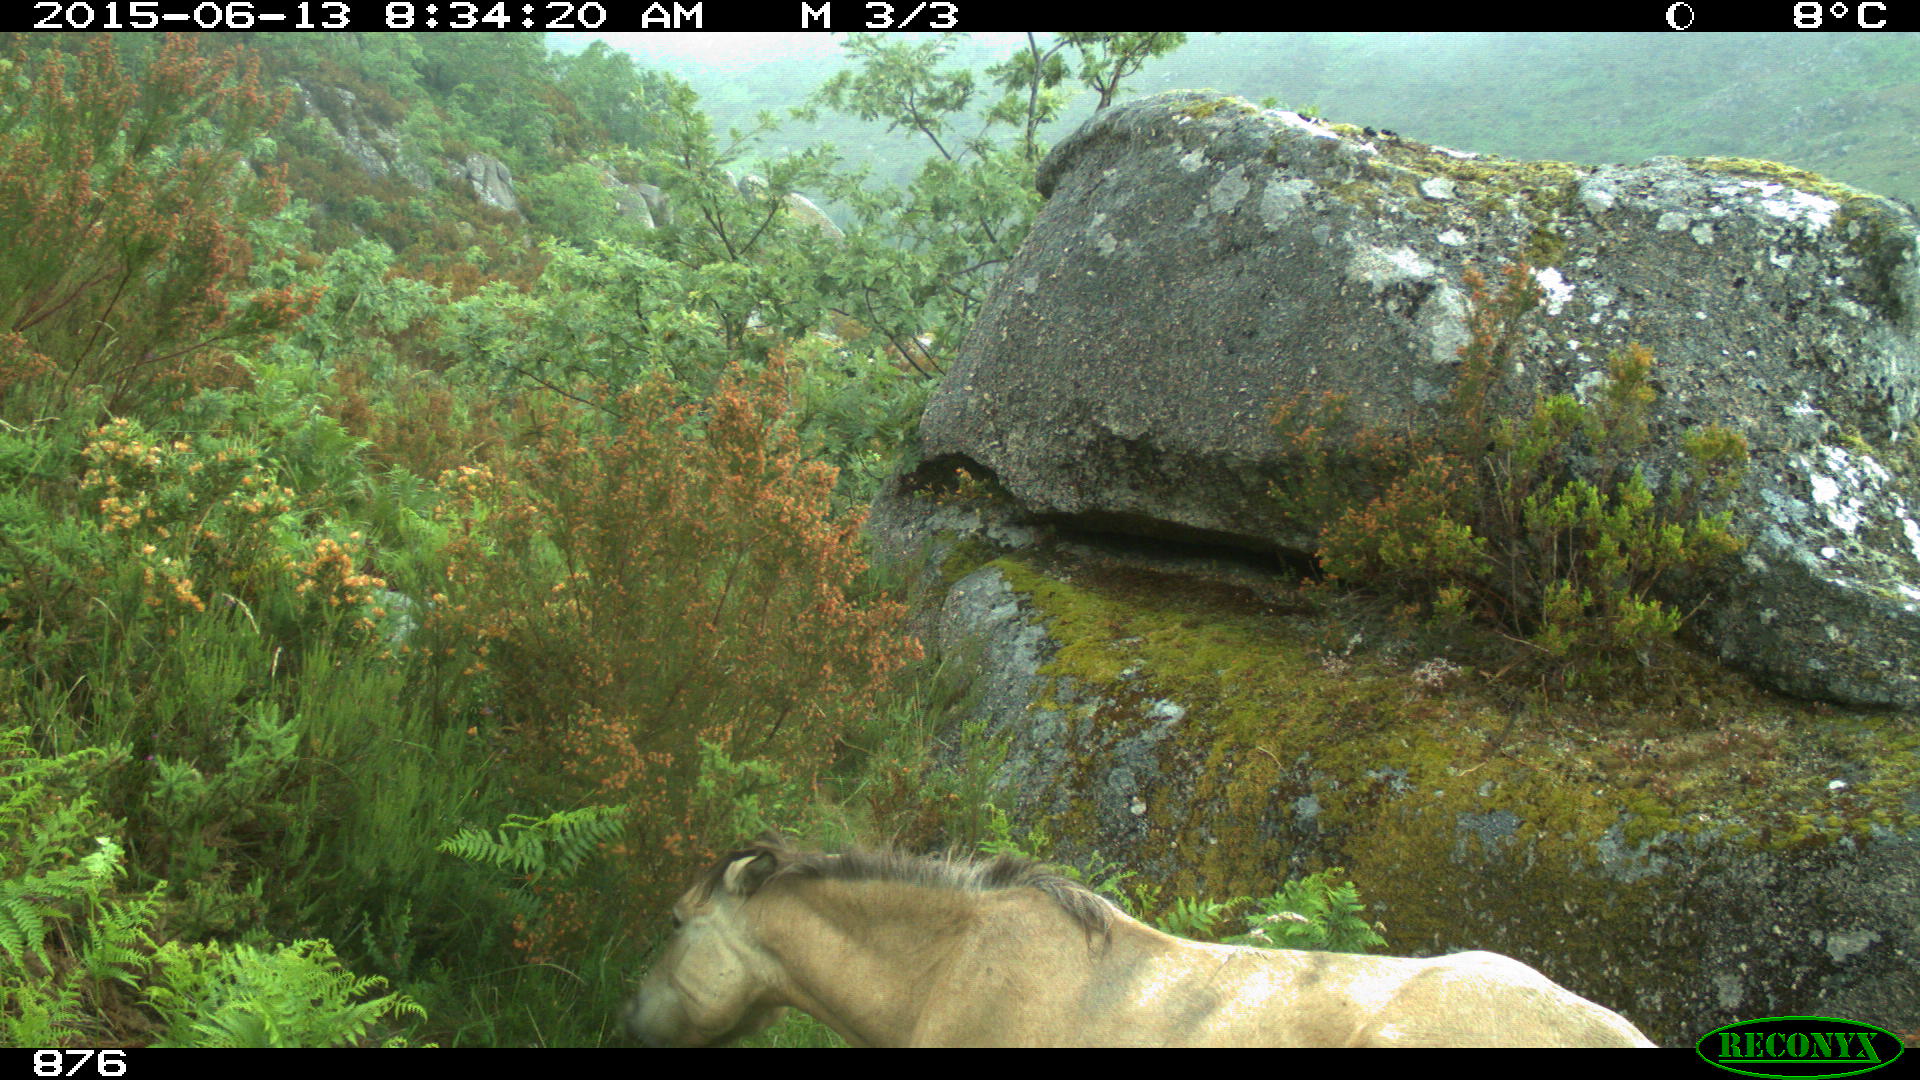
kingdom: Animalia
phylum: Chordata
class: Mammalia
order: Perissodactyla
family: Equidae
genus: Equus
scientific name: Equus caballus
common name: Horse
